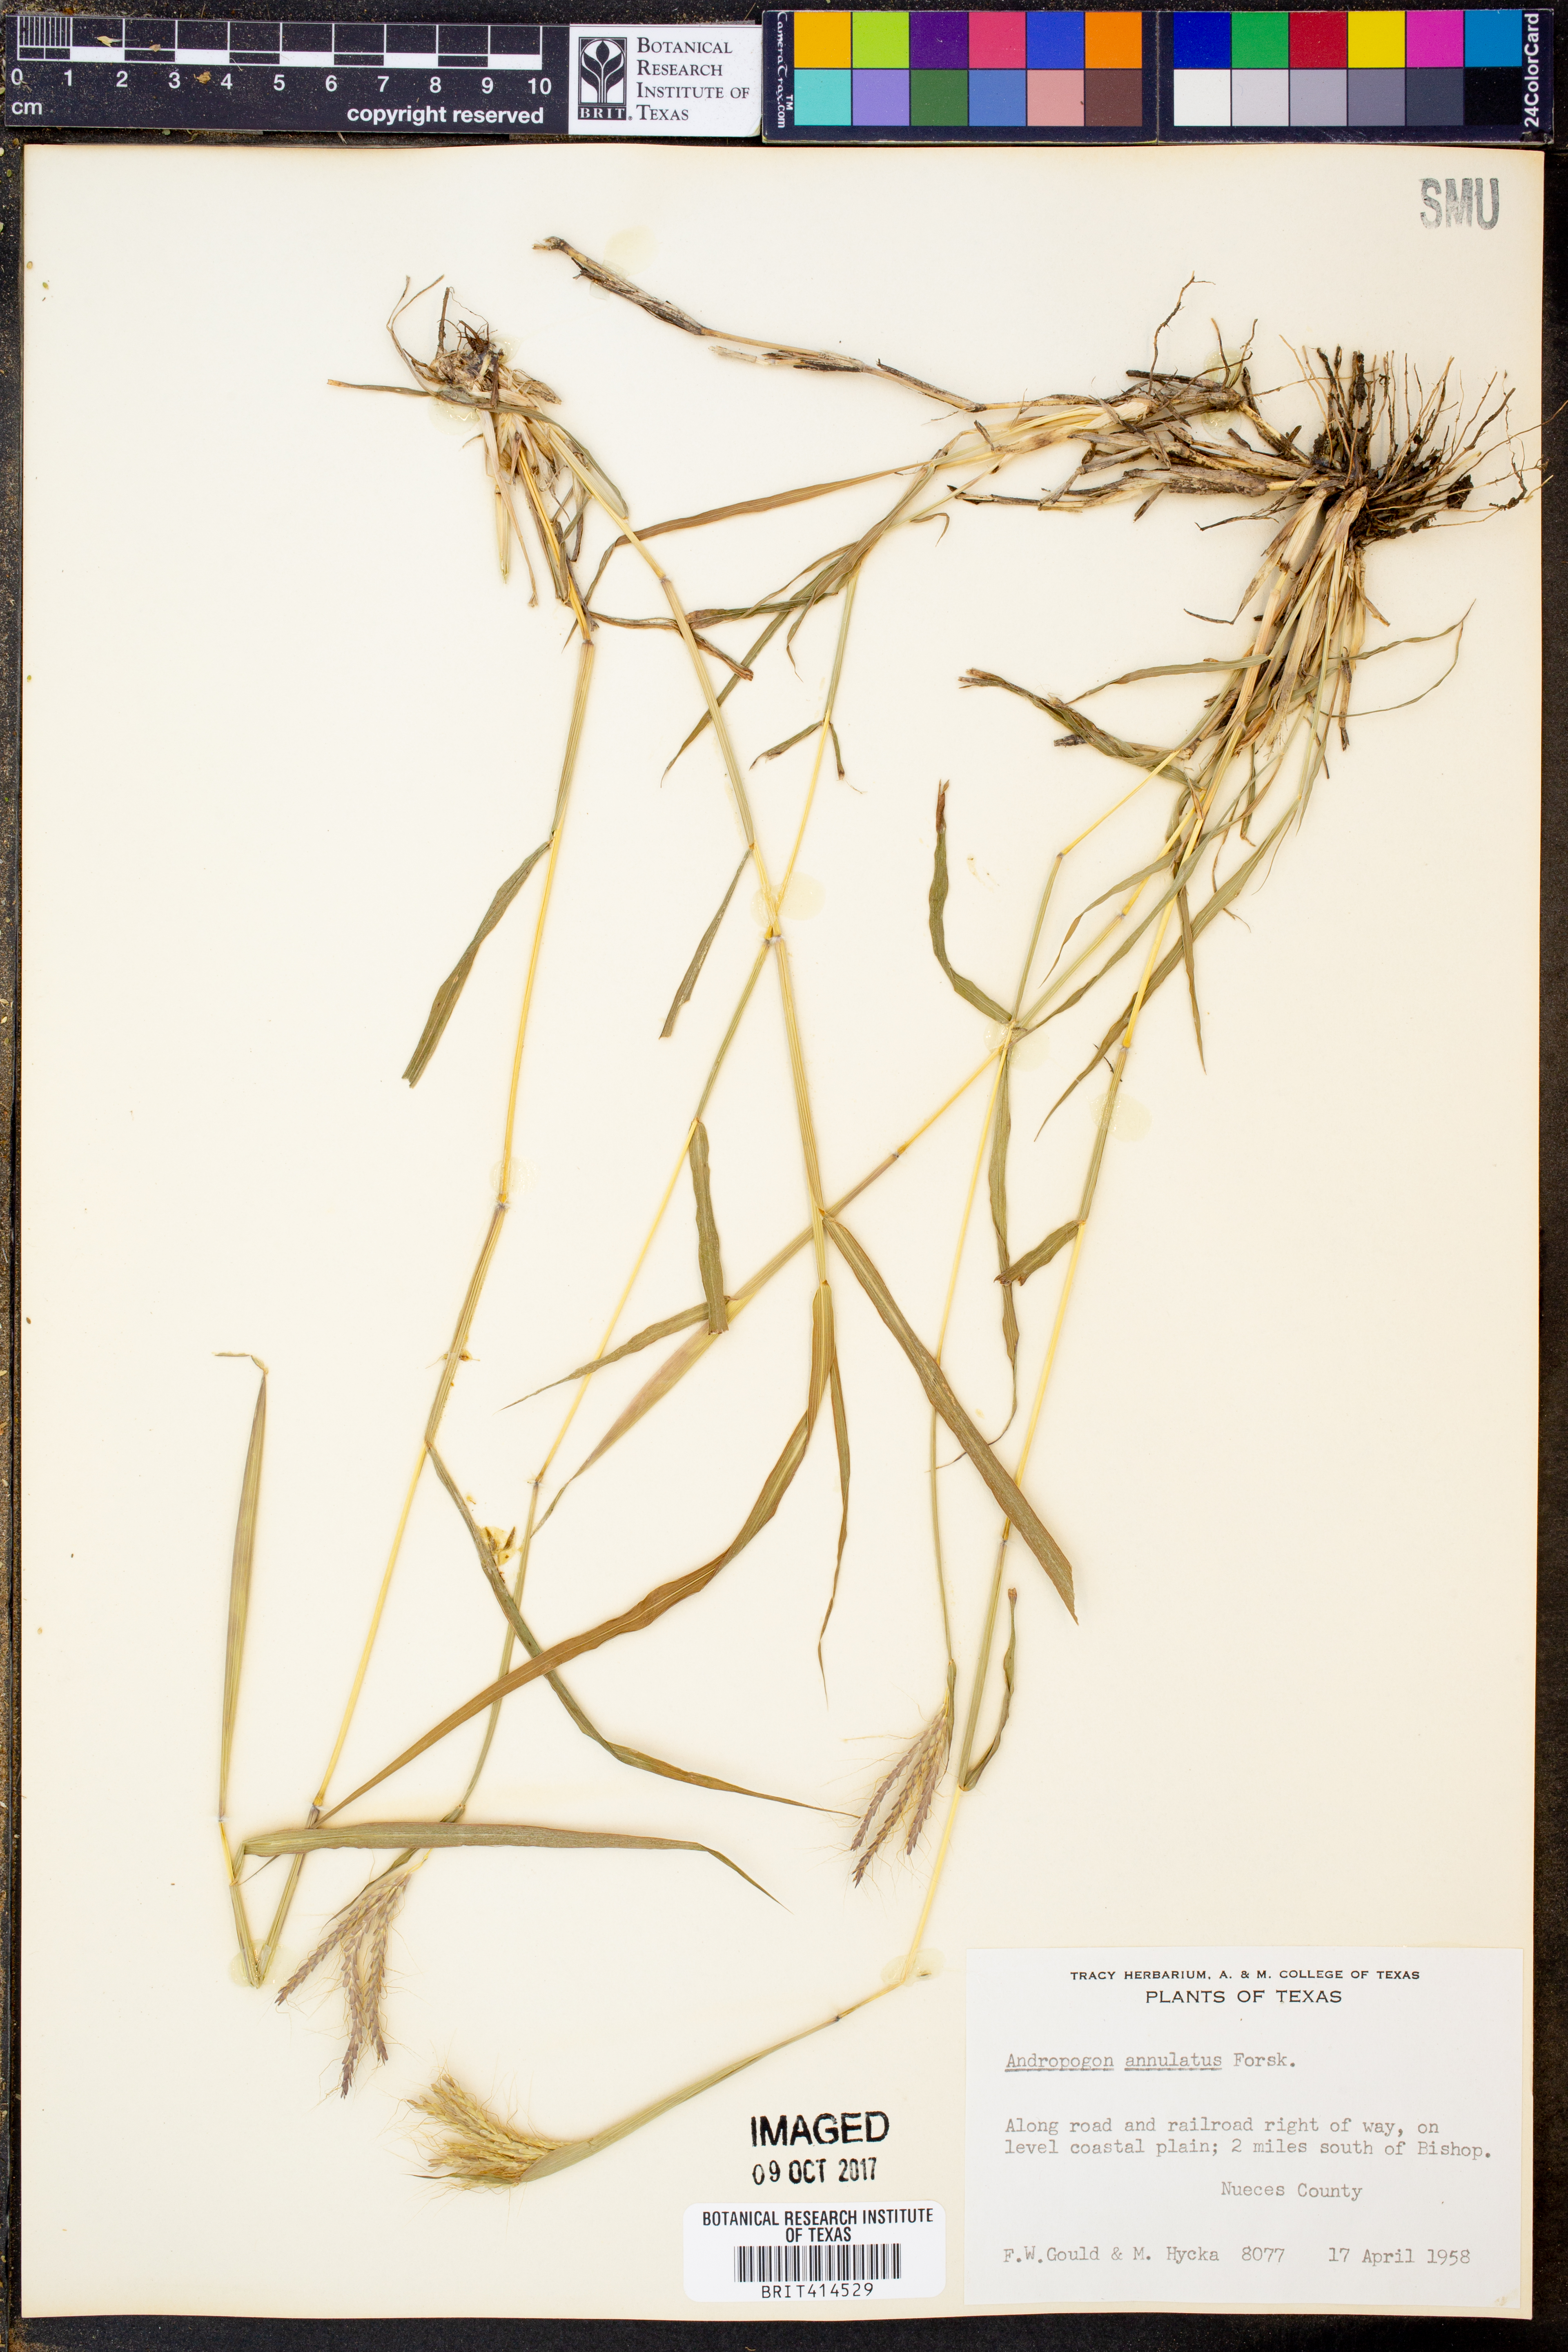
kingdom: Plantae
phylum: Tracheophyta
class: Liliopsida
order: Poales
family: Poaceae
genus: Dichanthium
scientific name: Dichanthium annulatum
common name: Kleberg's bluestem
